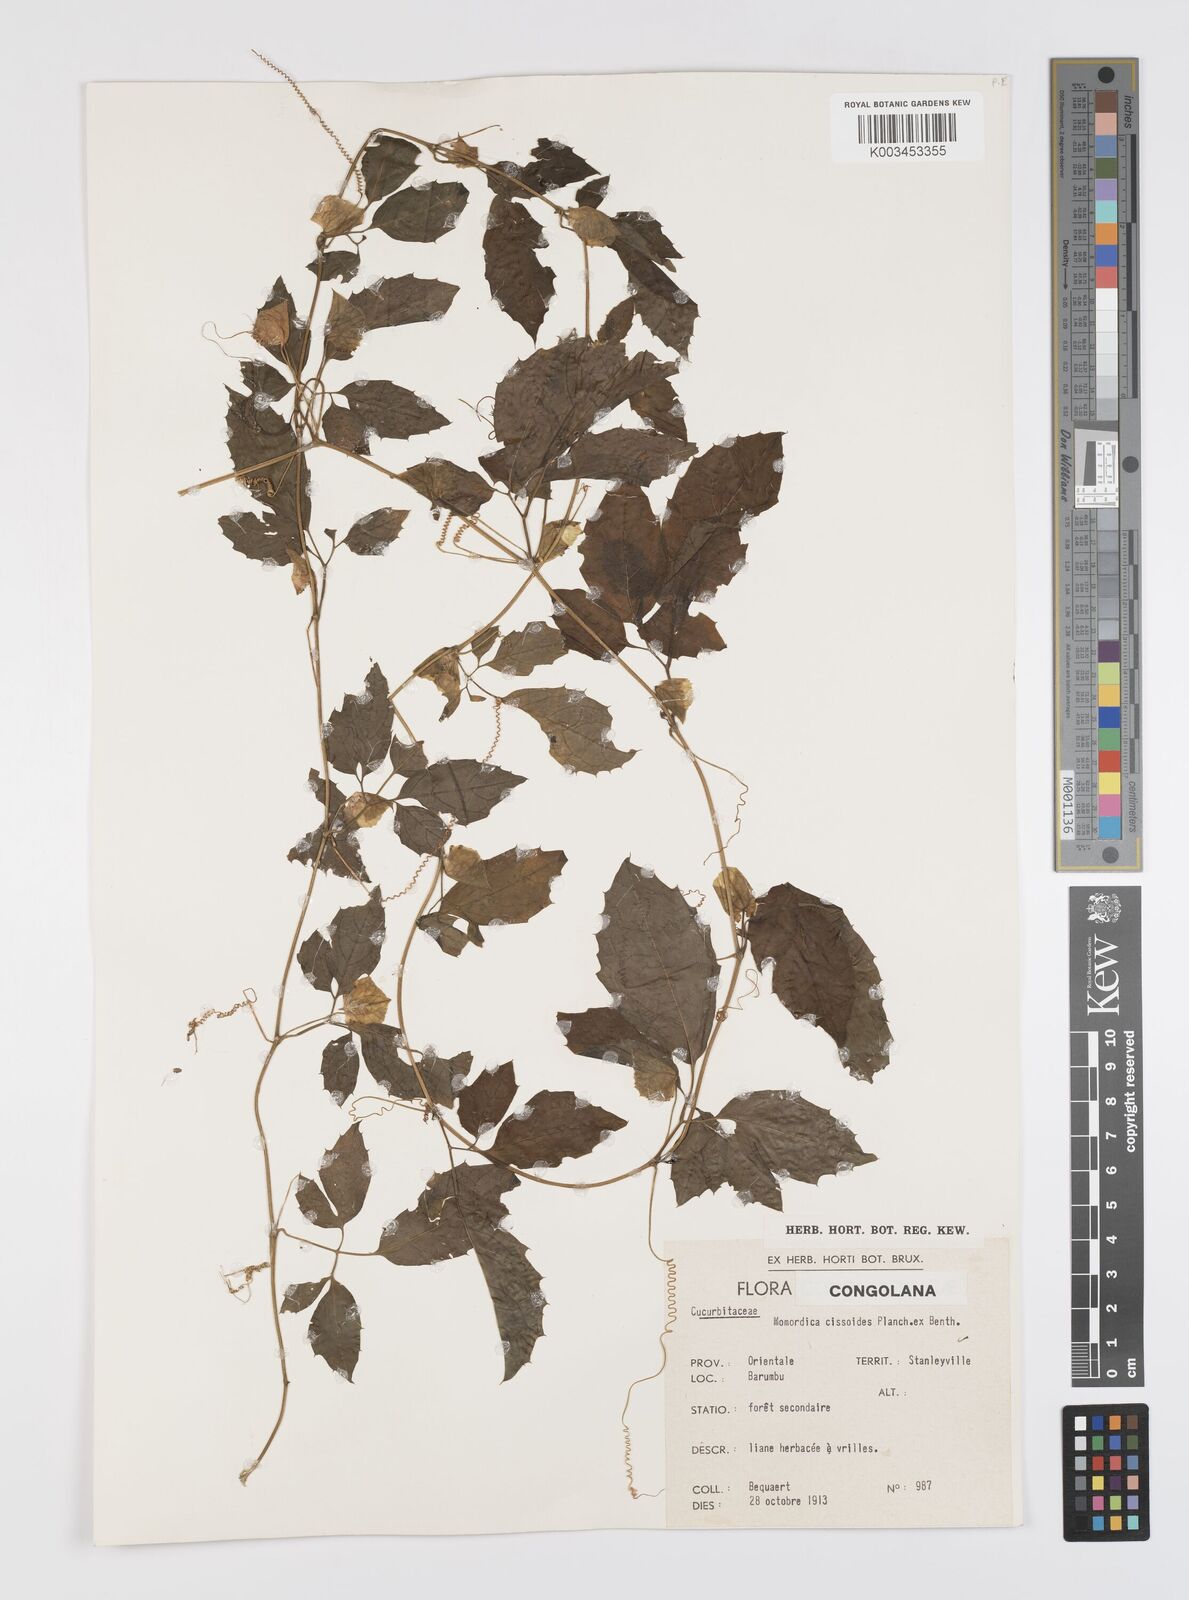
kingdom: Plantae
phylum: Tracheophyta
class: Magnoliopsida
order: Cucurbitales
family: Cucurbitaceae
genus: Momordica
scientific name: Momordica cissoides
